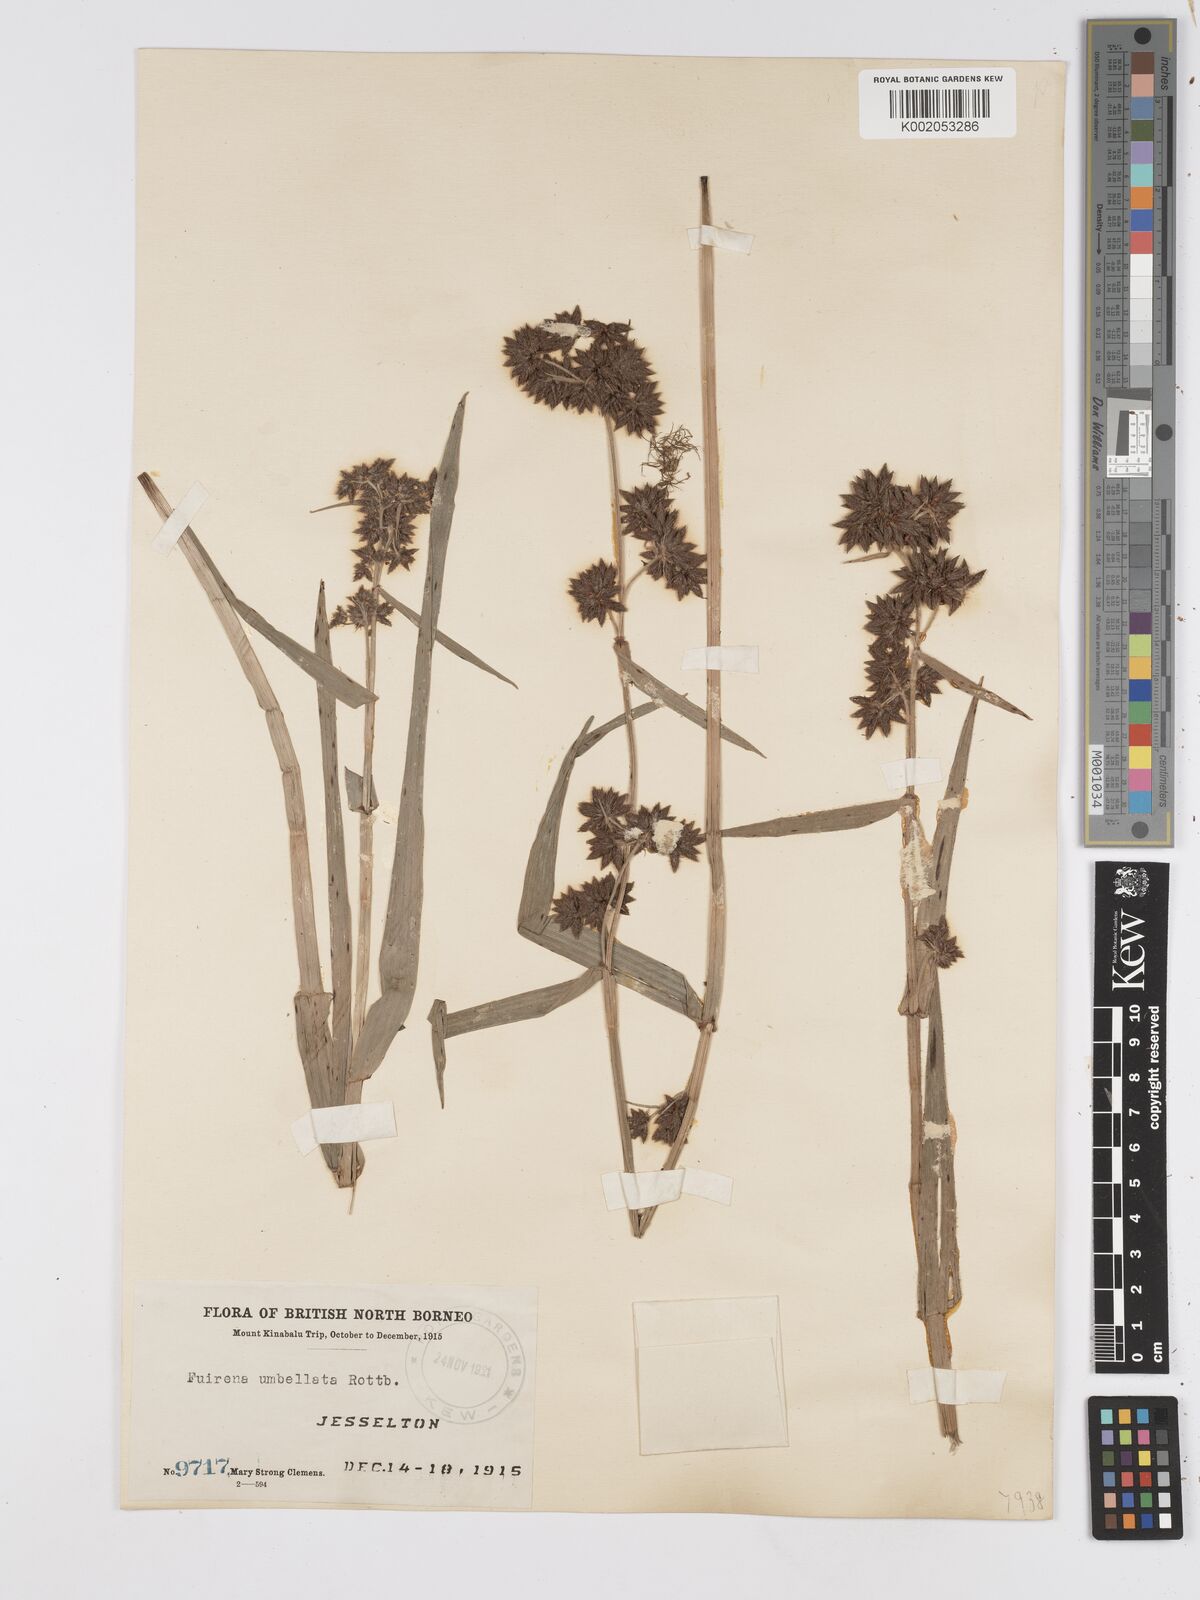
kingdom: Plantae
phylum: Tracheophyta
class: Liliopsida
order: Poales
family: Cyperaceae
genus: Fuirena
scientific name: Fuirena umbellata
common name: Yefen
